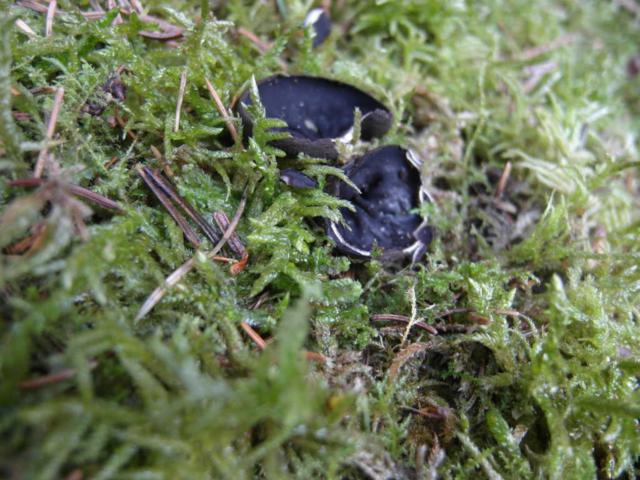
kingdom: Fungi
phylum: Ascomycota
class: Pezizomycetes
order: Pezizales
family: Sarcosomataceae
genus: Pseudoplectania
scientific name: Pseudoplectania nigrella
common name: almindelig sortbæger
